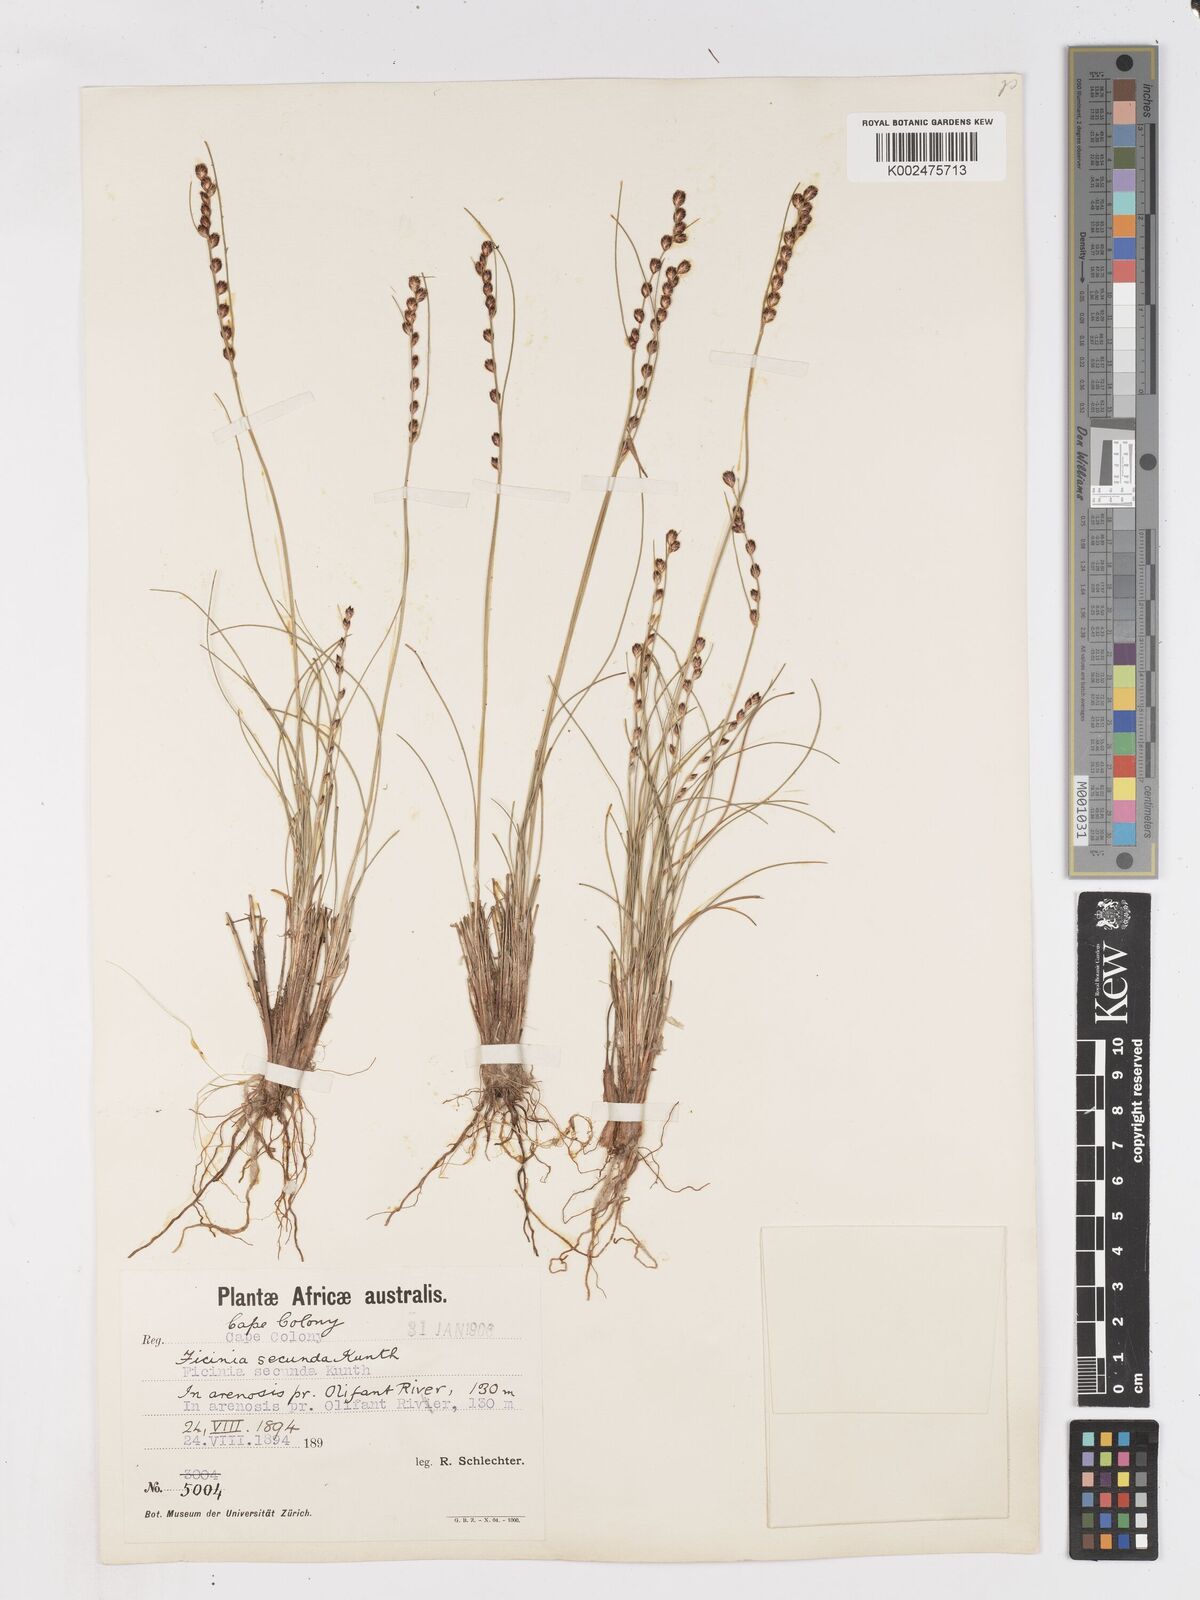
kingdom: Plantae
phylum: Tracheophyta
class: Liliopsida
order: Poales
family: Cyperaceae
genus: Ficinia
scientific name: Ficinia secunda
